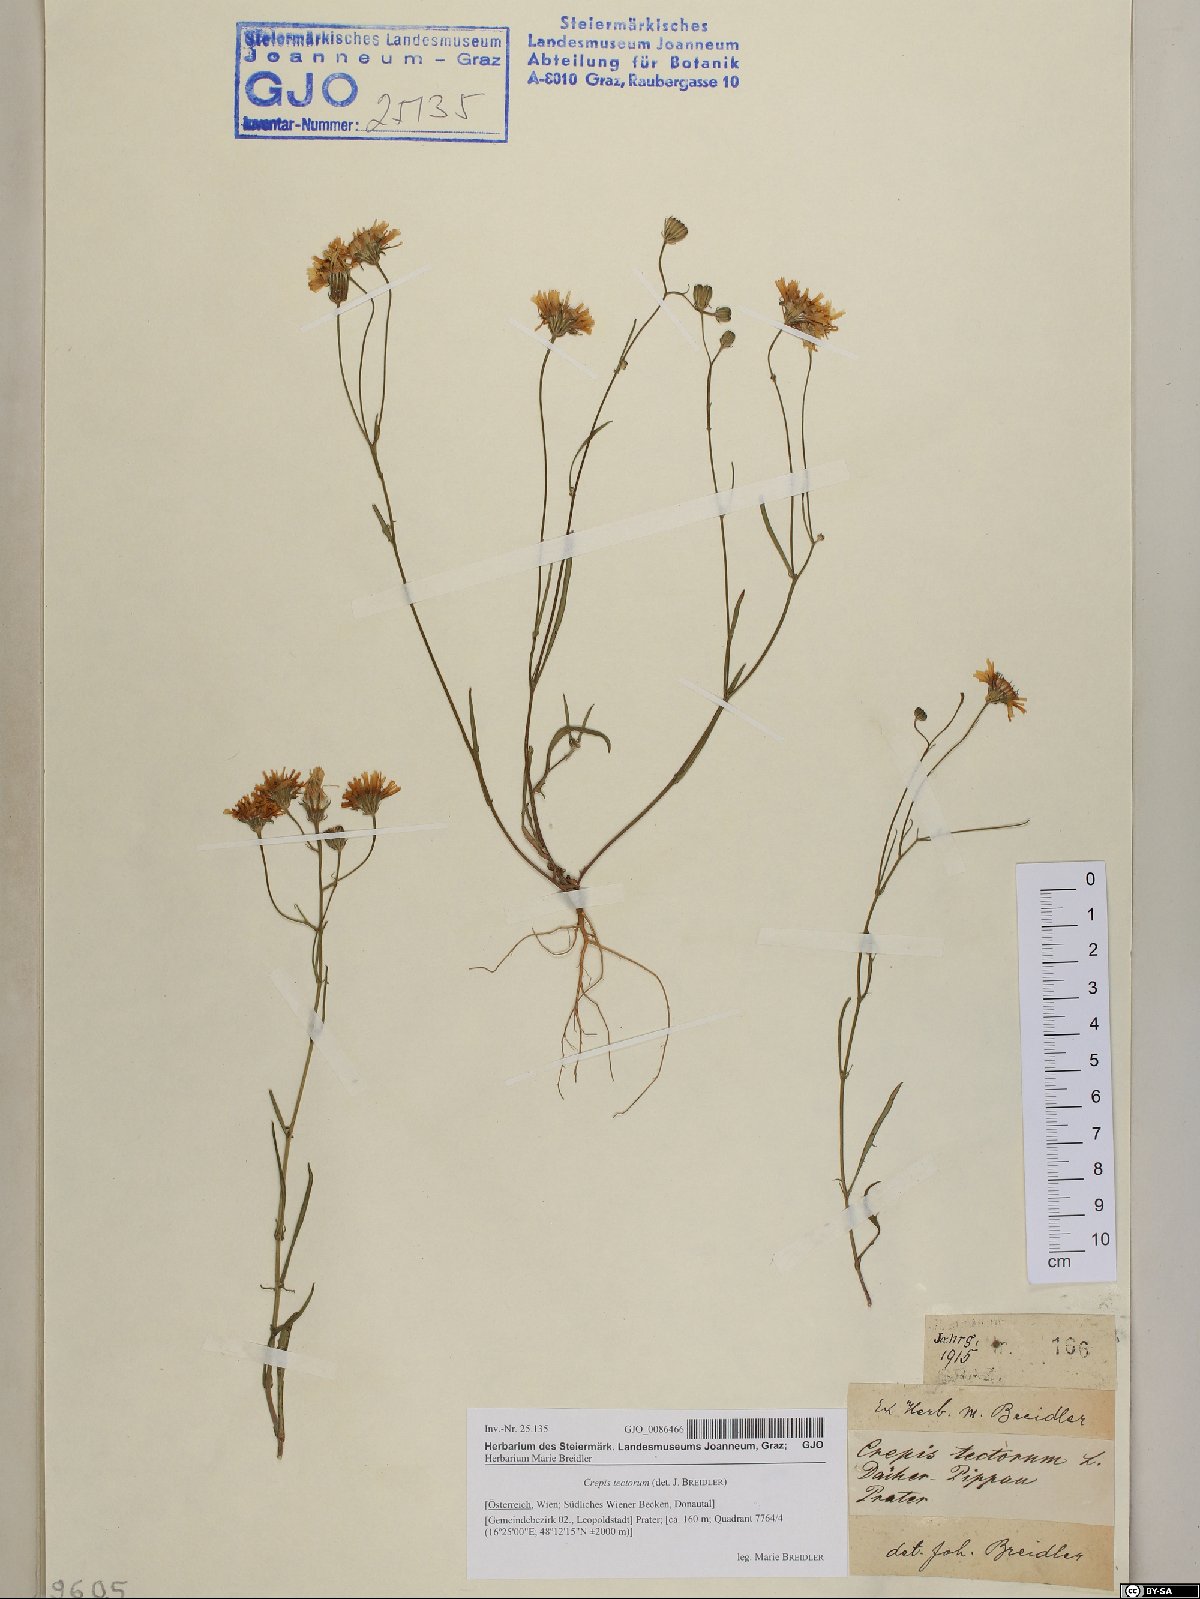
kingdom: Plantae
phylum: Tracheophyta
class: Magnoliopsida
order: Asterales
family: Asteraceae
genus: Crepis
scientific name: Crepis tectorum
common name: Narrow-leaved hawk's-beard
